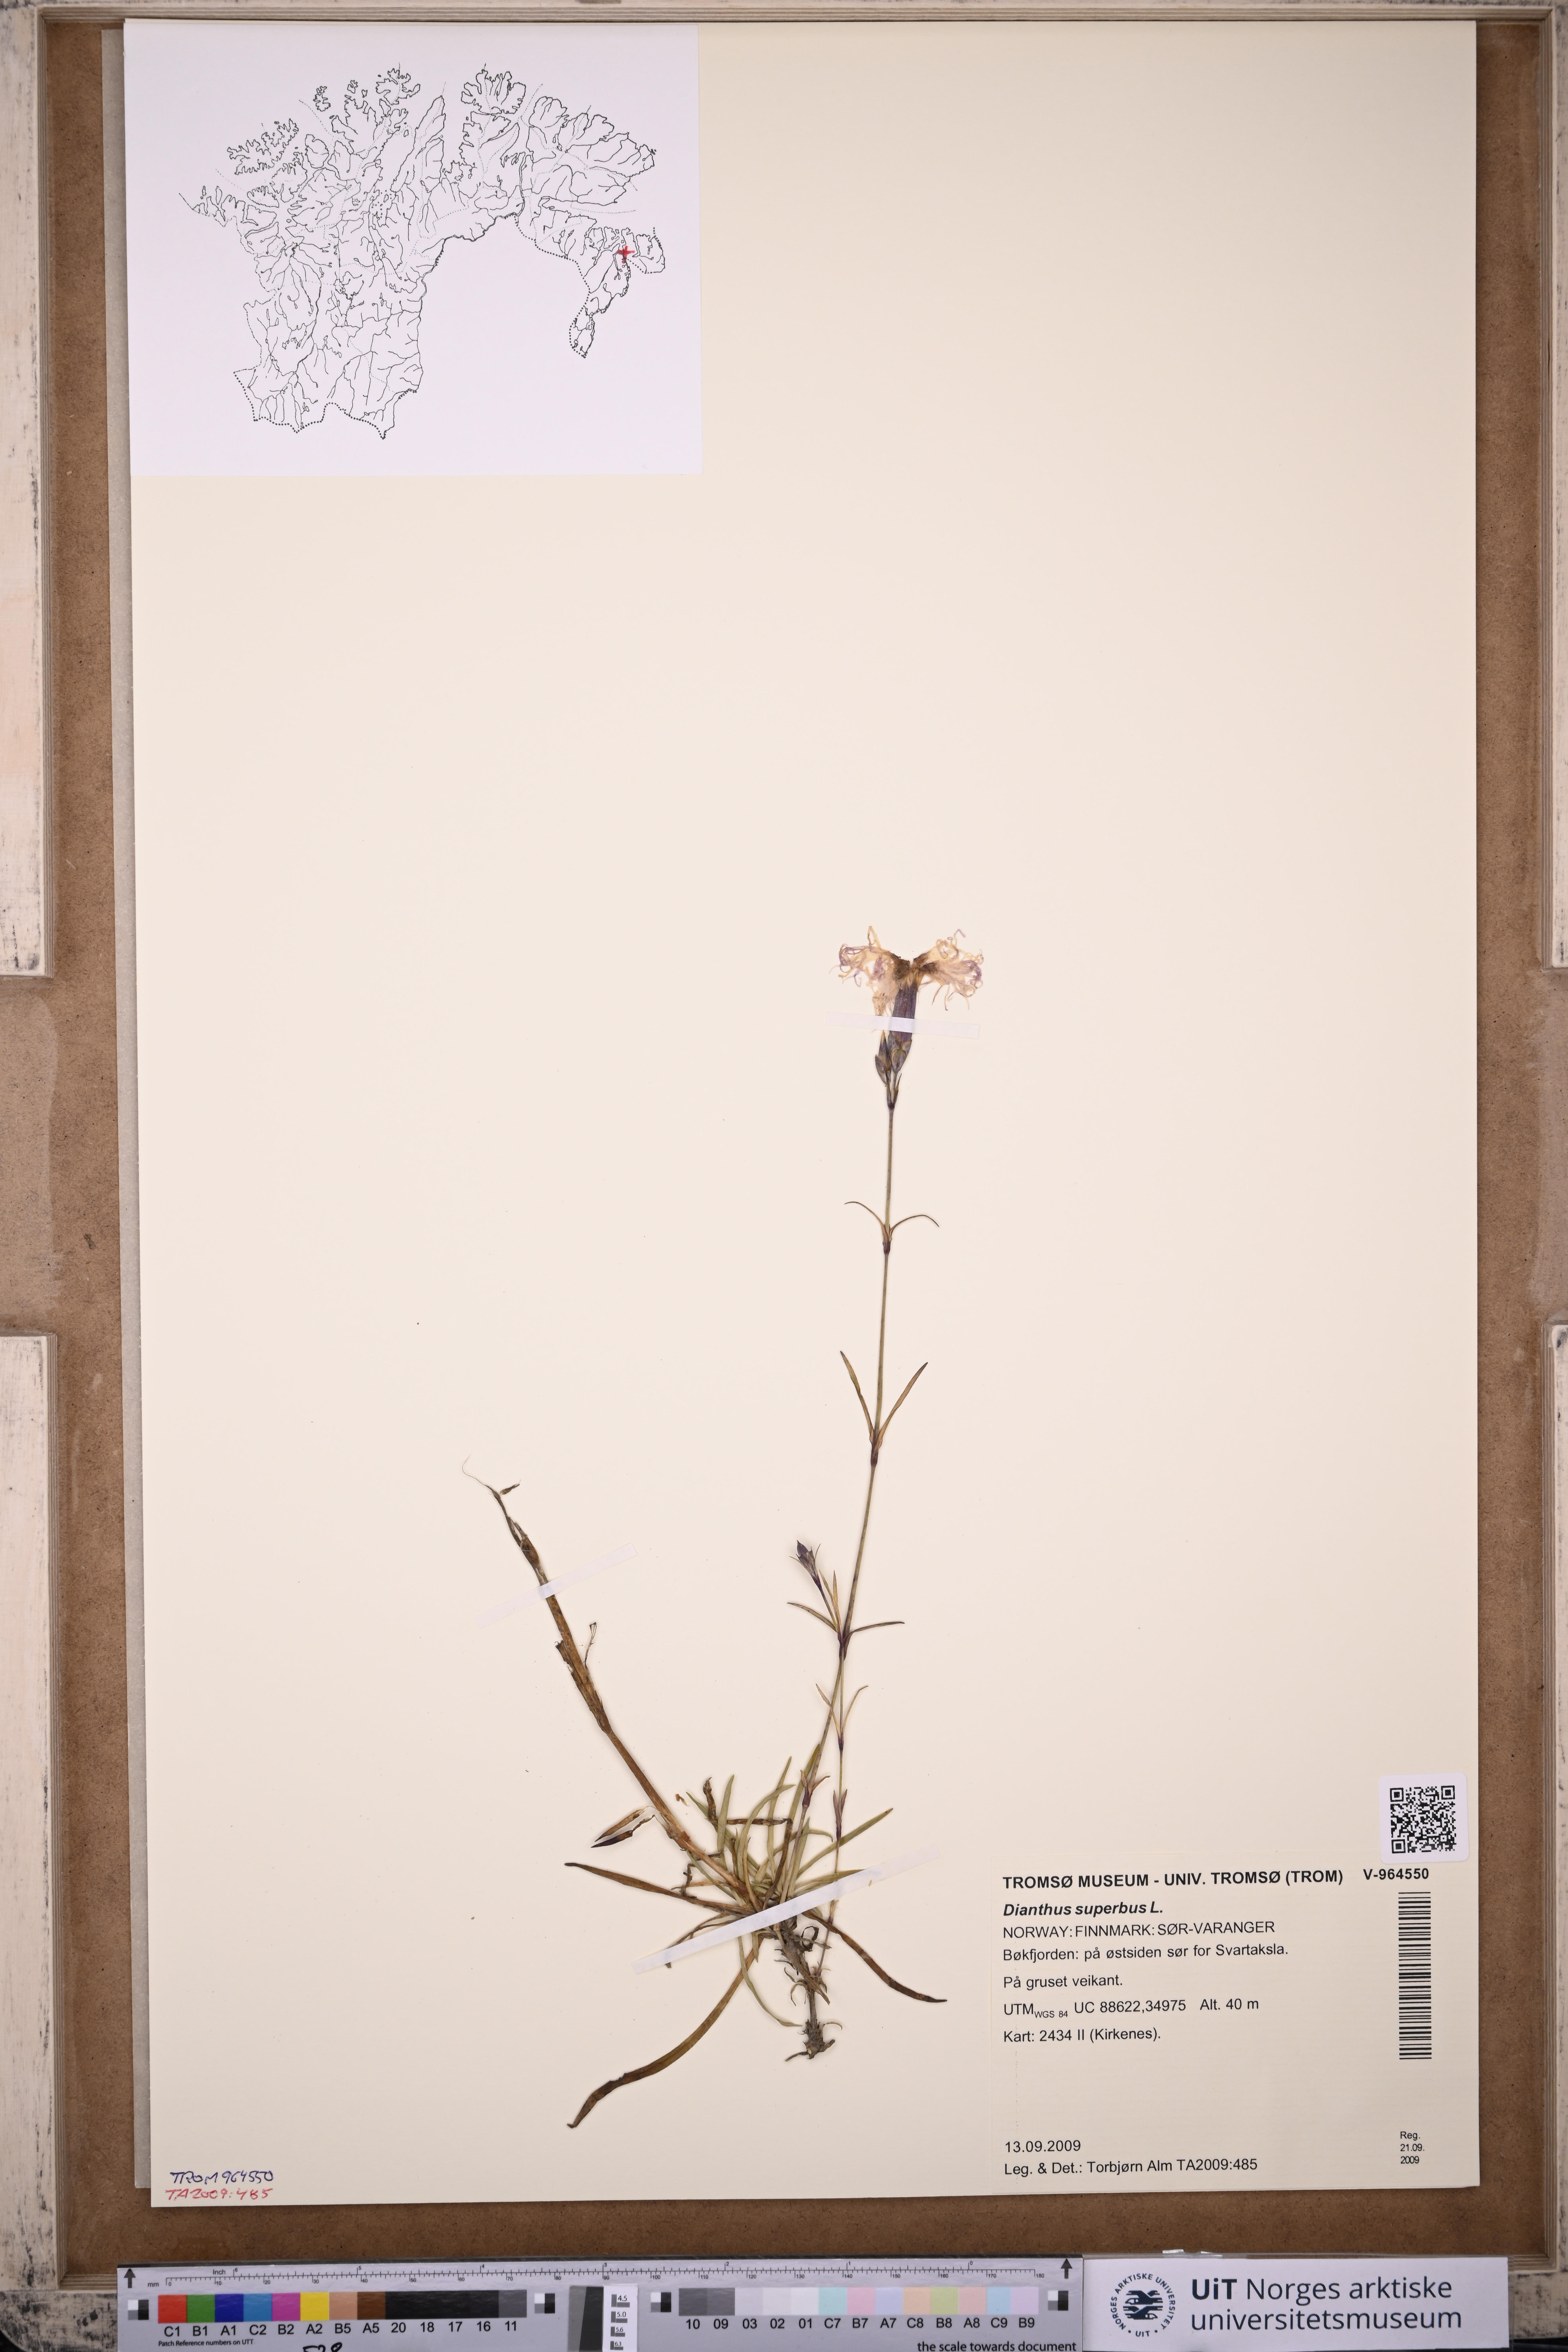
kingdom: Plantae
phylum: Tracheophyta
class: Magnoliopsida
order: Caryophyllales
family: Caryophyllaceae
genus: Dianthus
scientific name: Dianthus superbus
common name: Fringed pink
